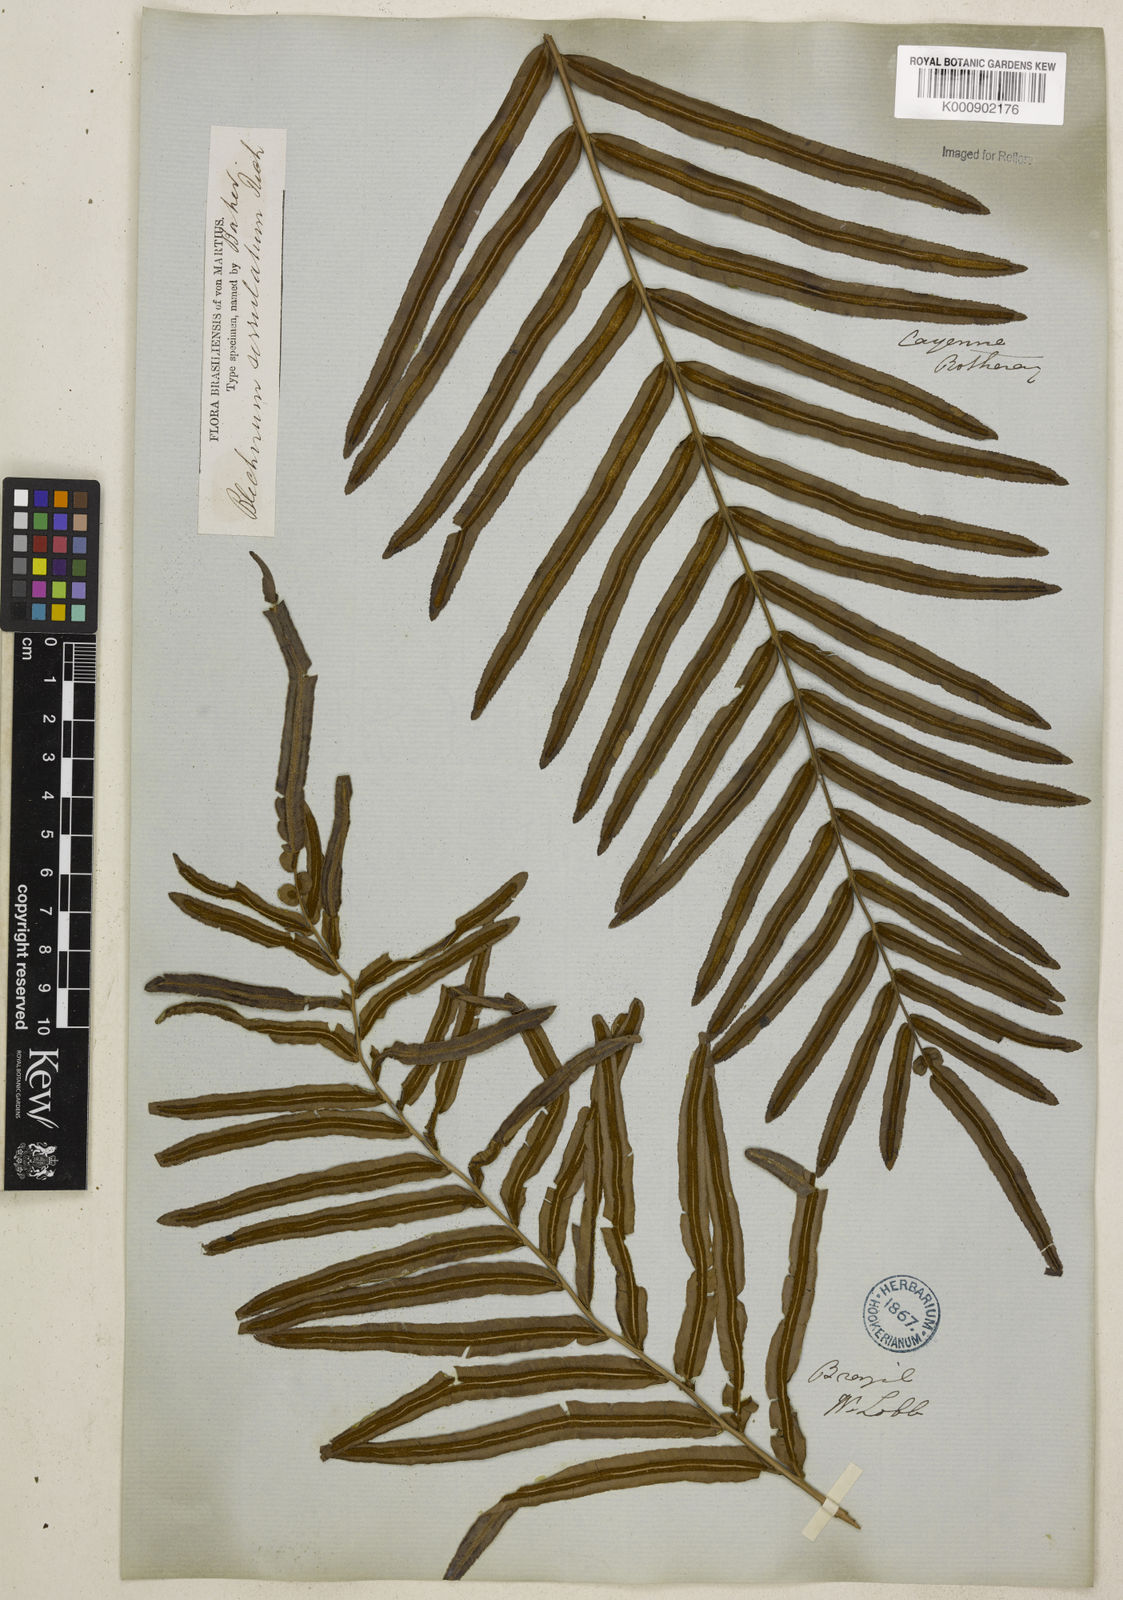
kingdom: Plantae
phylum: Tracheophyta
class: Polypodiopsida
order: Polypodiales
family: Blechnaceae
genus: Telmatoblechnum
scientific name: Telmatoblechnum serrulatum
